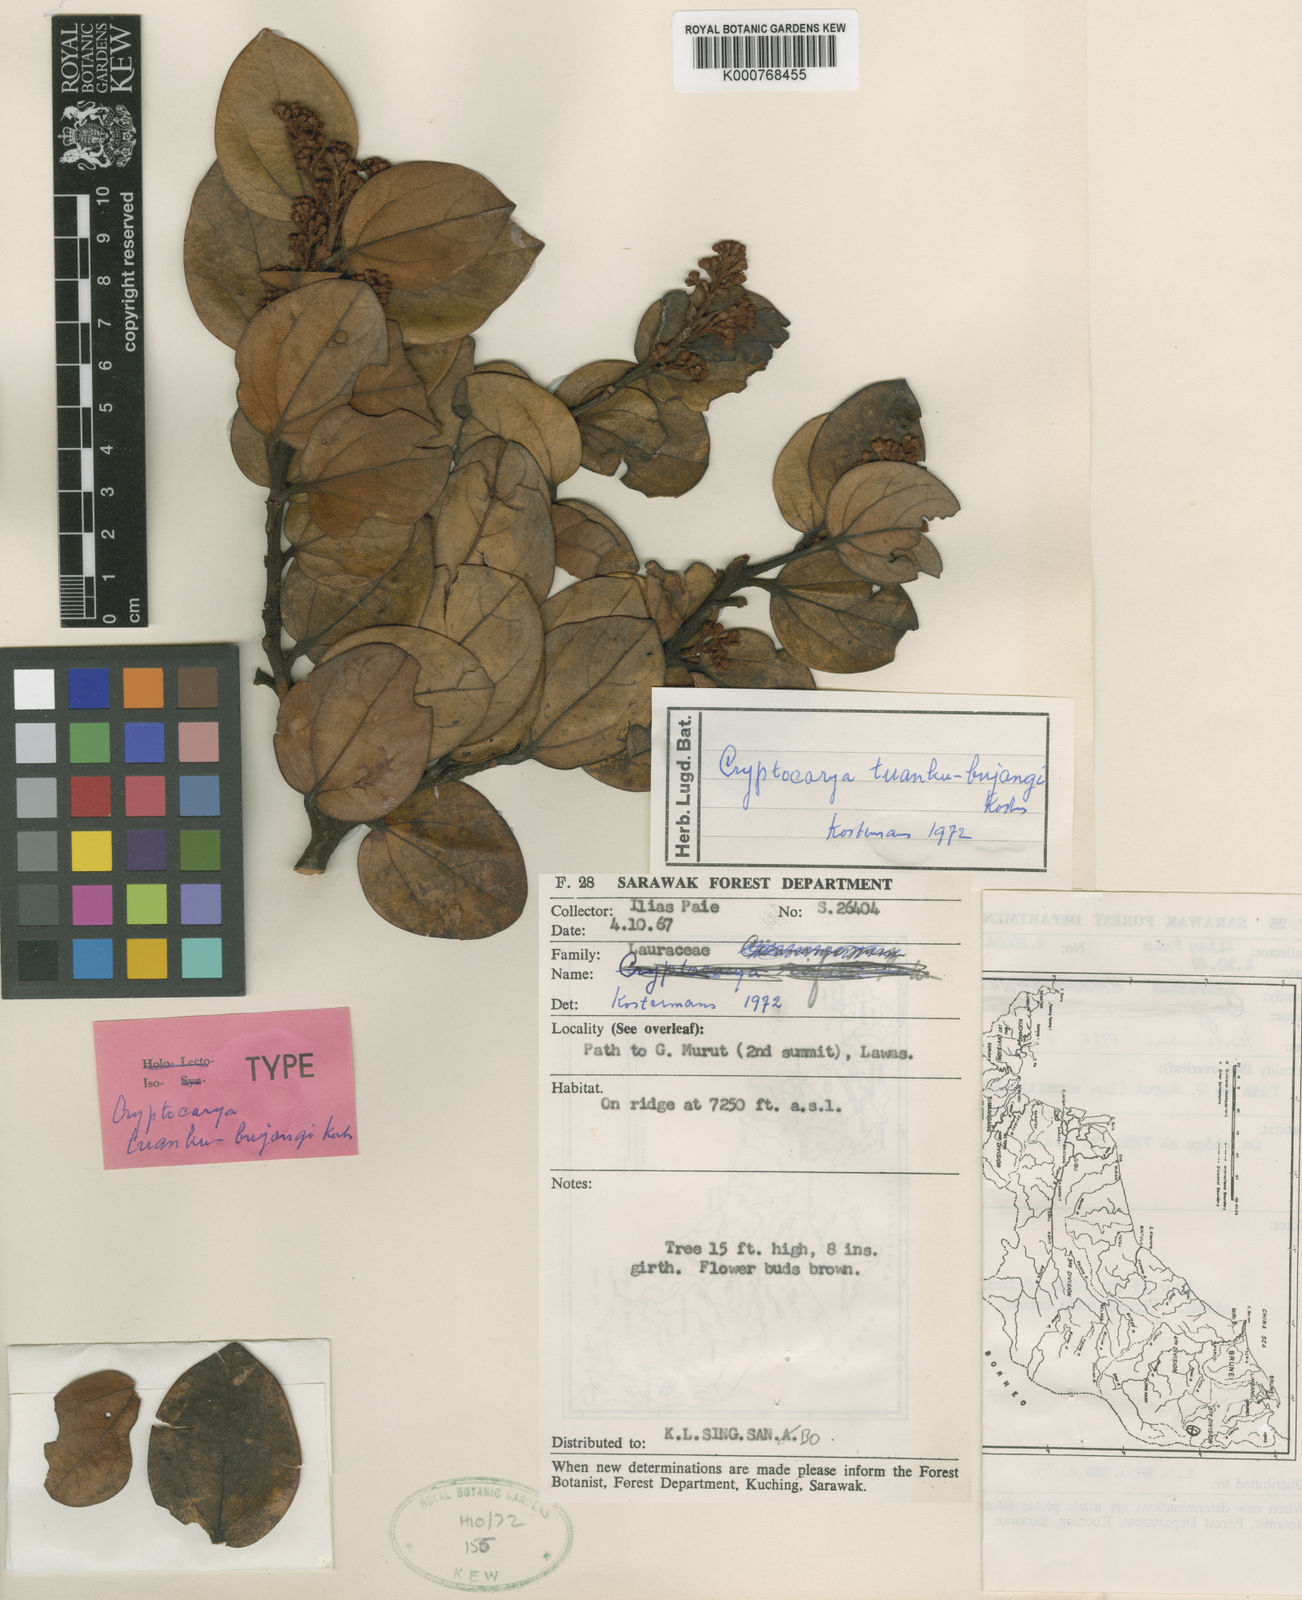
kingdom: Plantae
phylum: Tracheophyta
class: Magnoliopsida
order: Laurales
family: Lauraceae
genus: Cryptocarya
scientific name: Cryptocarya tuanku-bujangii
